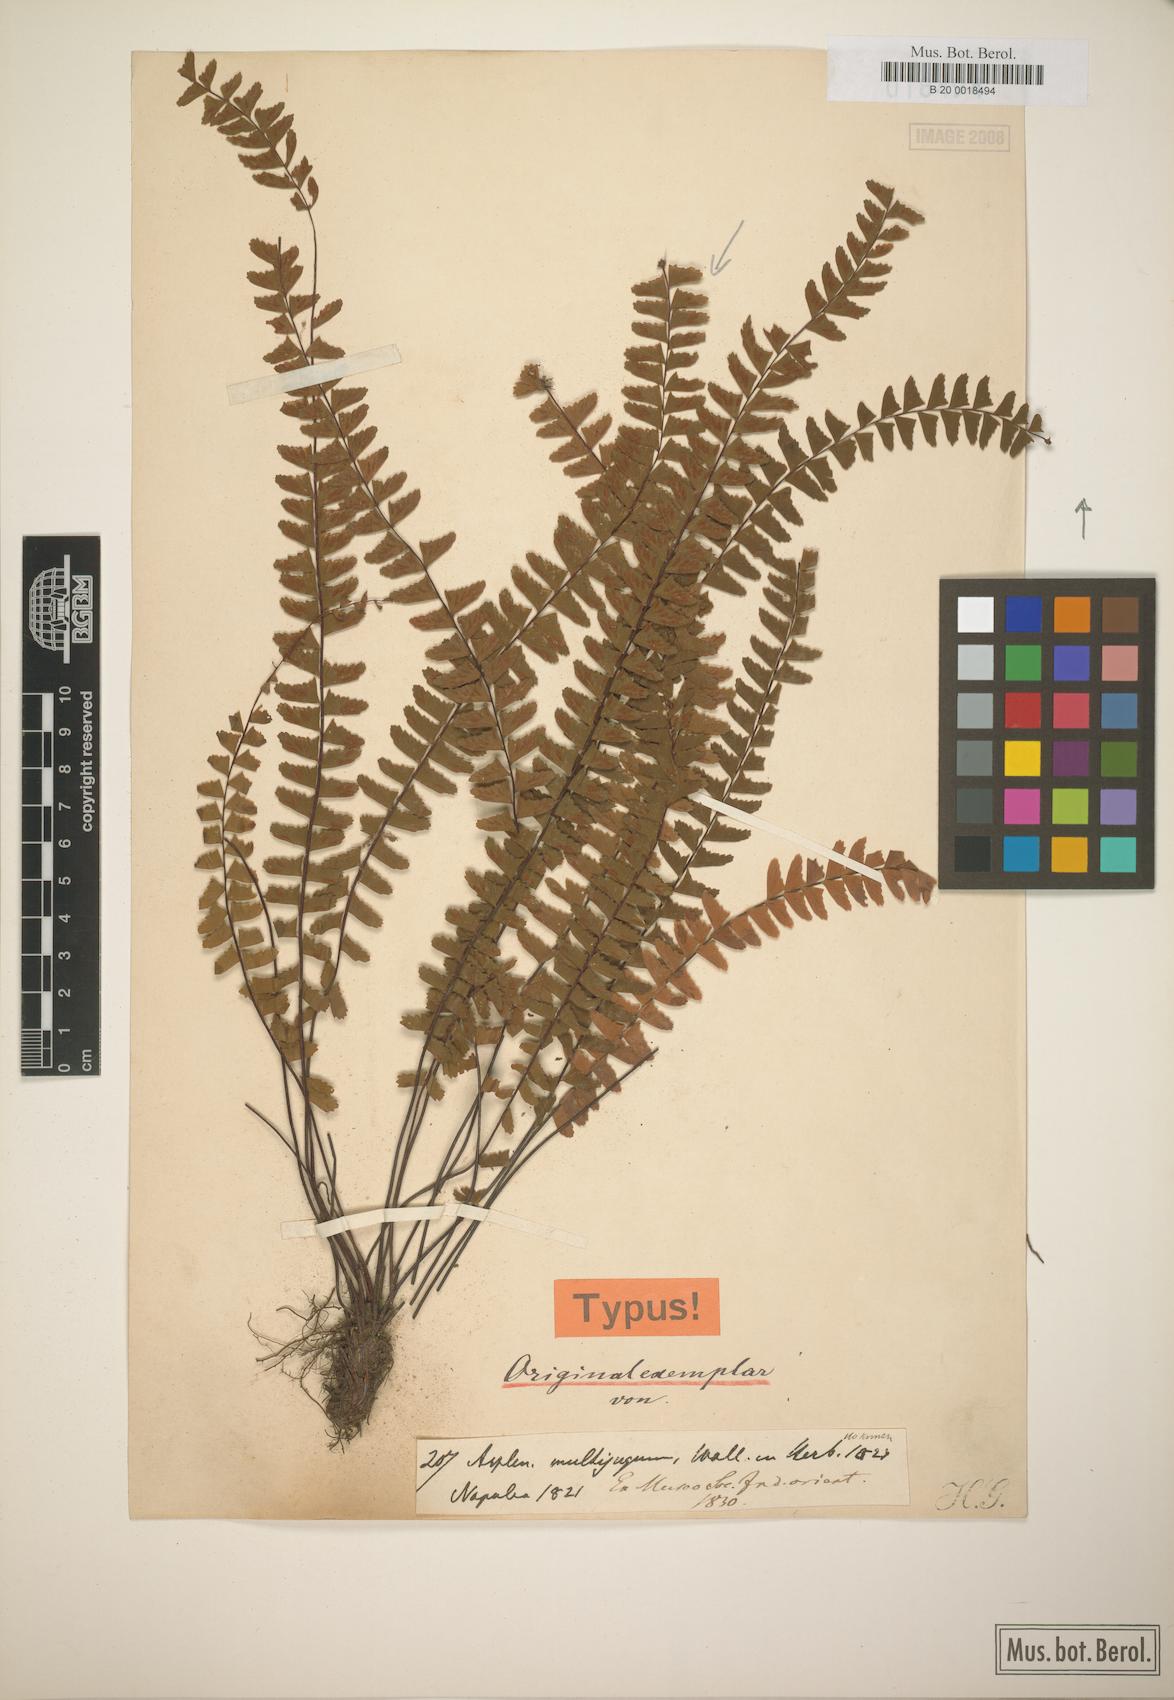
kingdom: Plantae
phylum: Tracheophyta
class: Polypodiopsida
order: Polypodiales
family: Aspleniaceae
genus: Asplenium
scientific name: Asplenium normale
